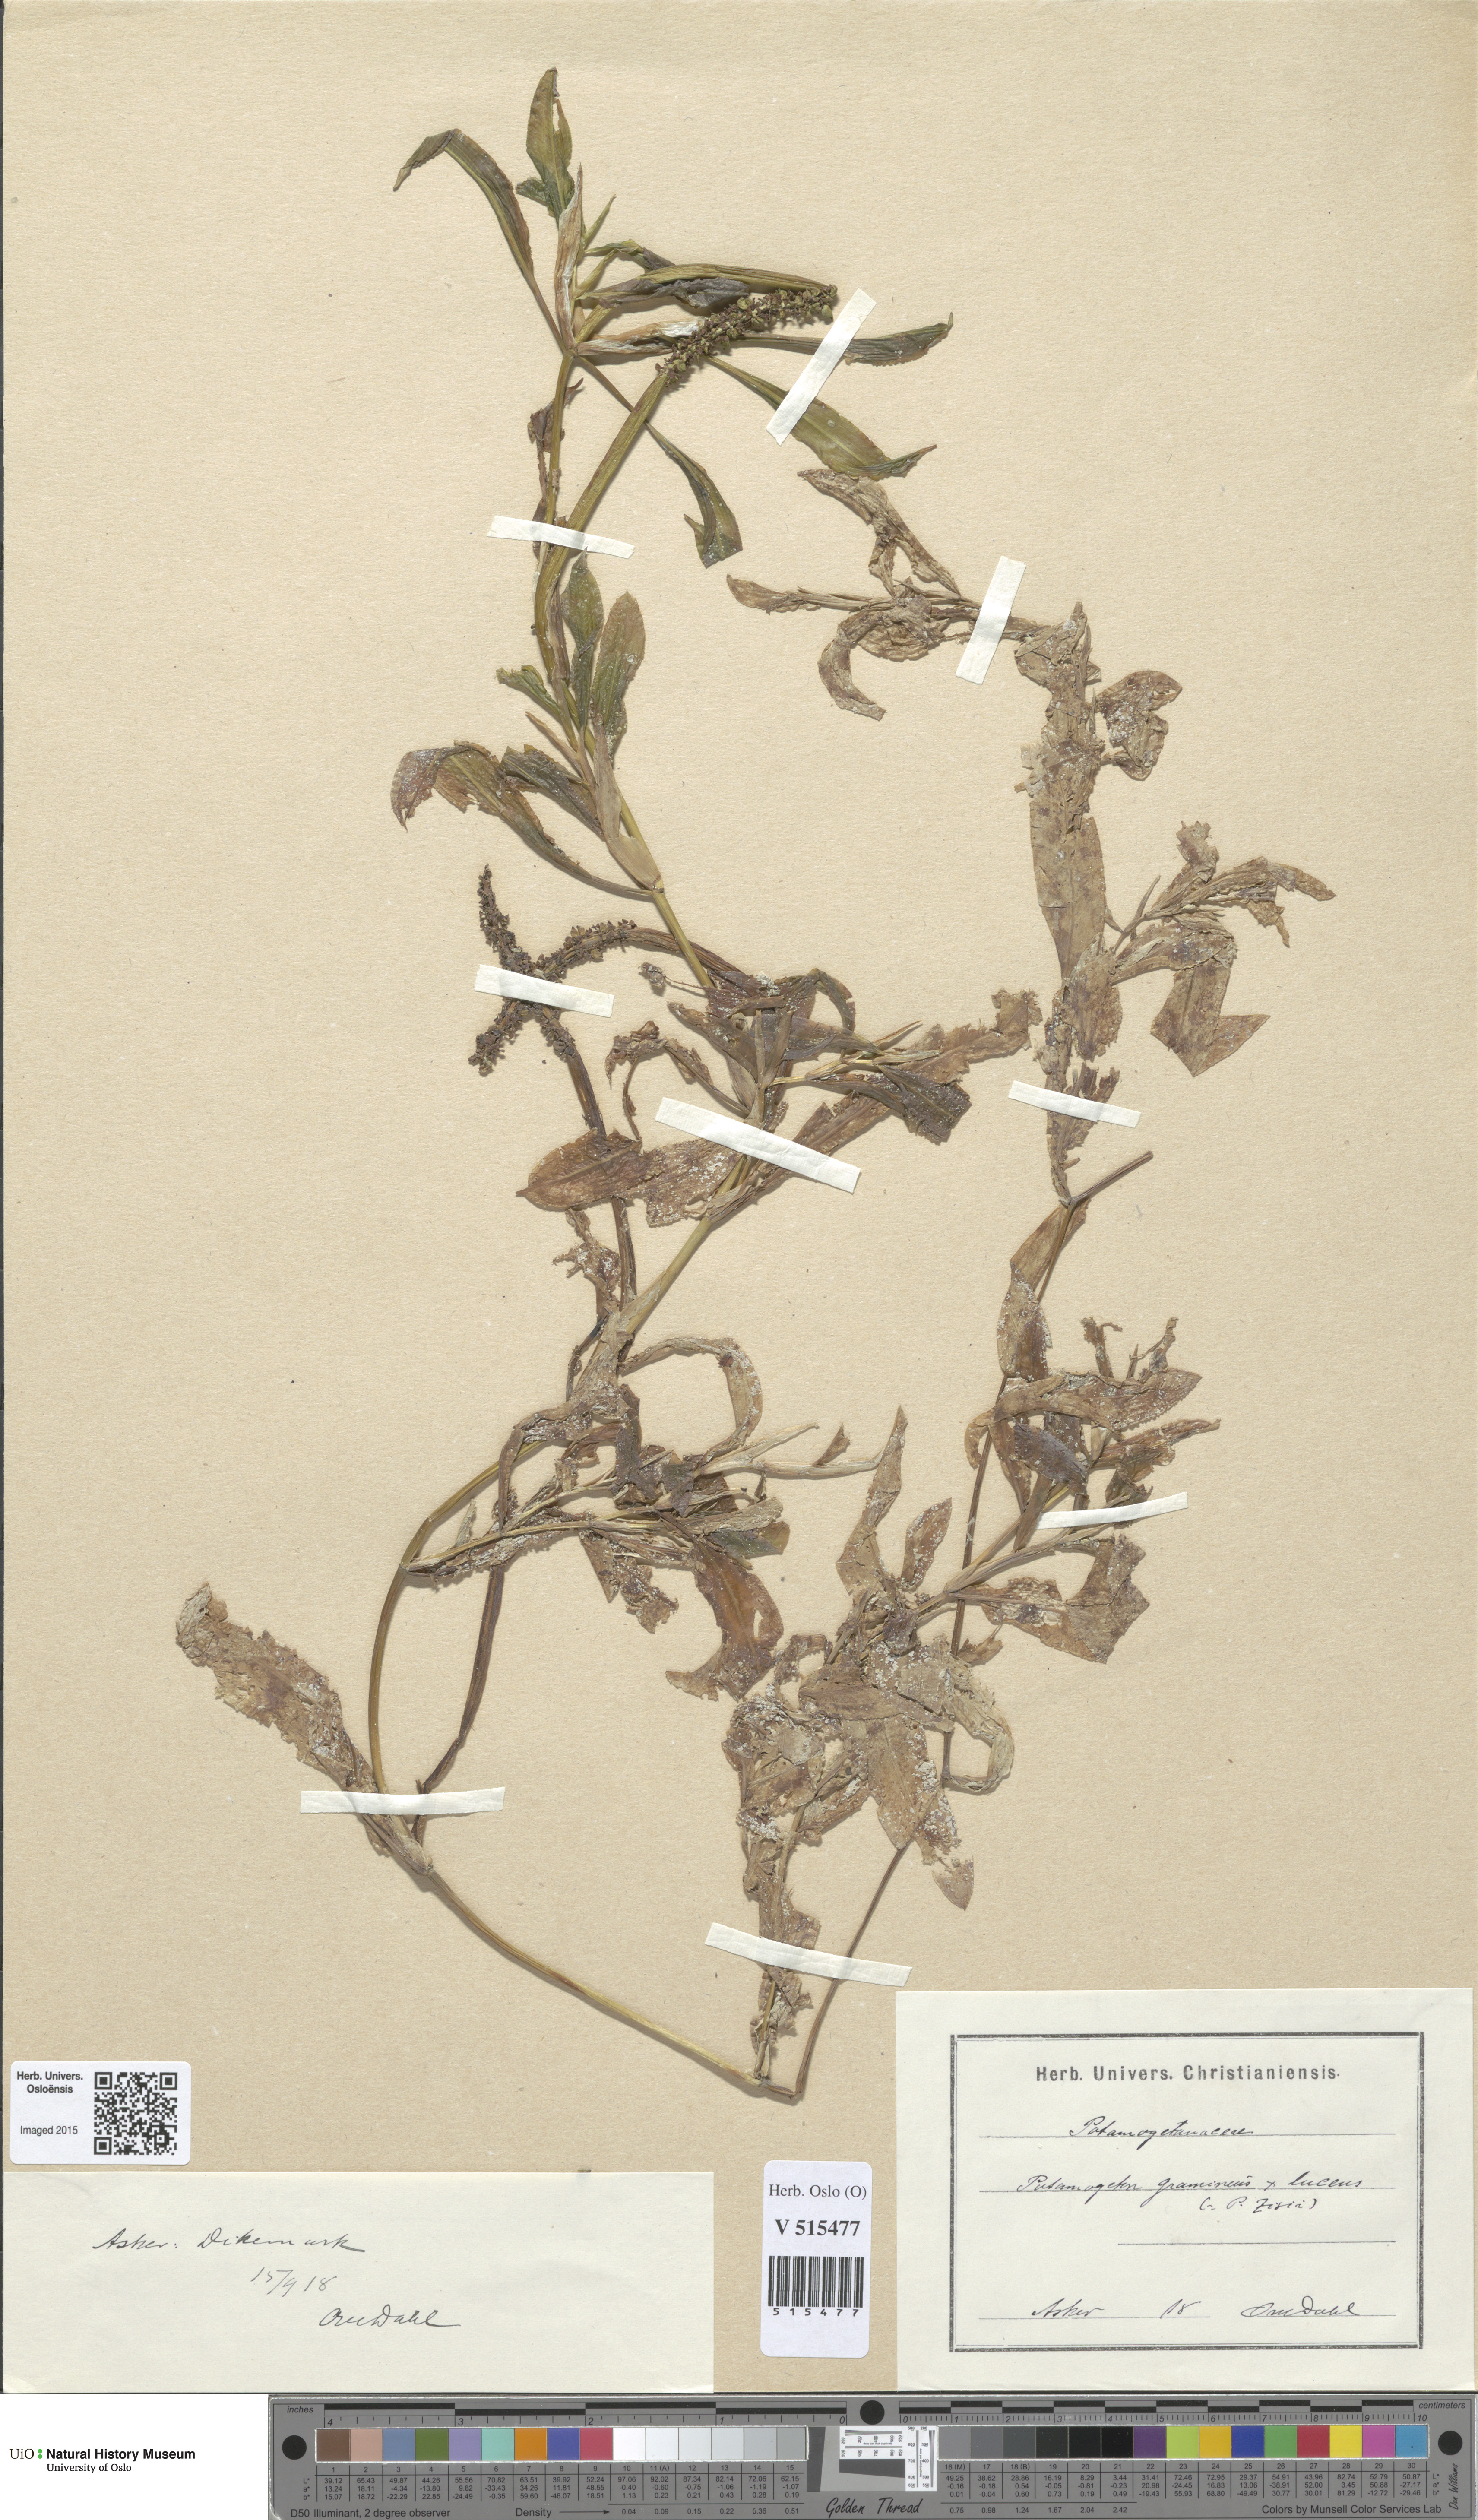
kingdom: Plantae
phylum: Tracheophyta
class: Liliopsida
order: Alismatales
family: Potamogetonaceae
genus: Potamogeton
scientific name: Potamogeton angustifolius
